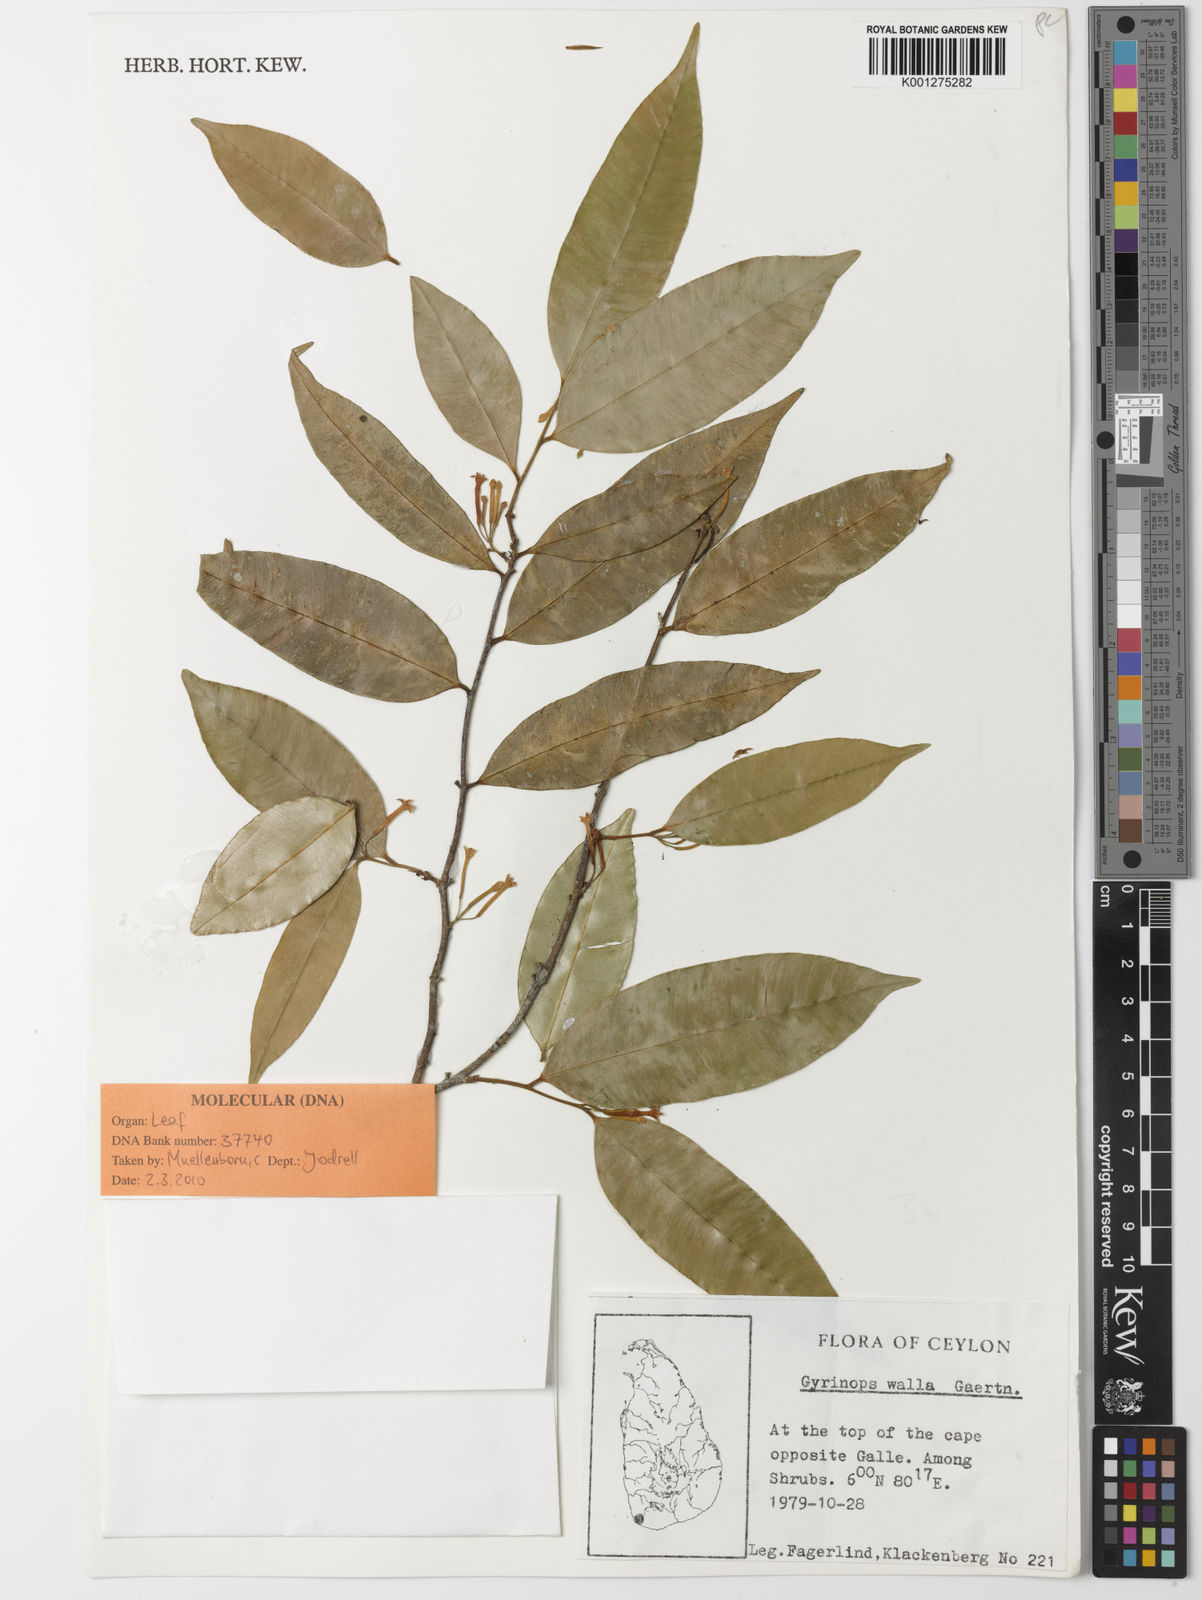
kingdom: Plantae
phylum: Tracheophyta
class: Magnoliopsida
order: Malvales
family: Thymelaeaceae
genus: Gyrinops
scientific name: Gyrinops walla
